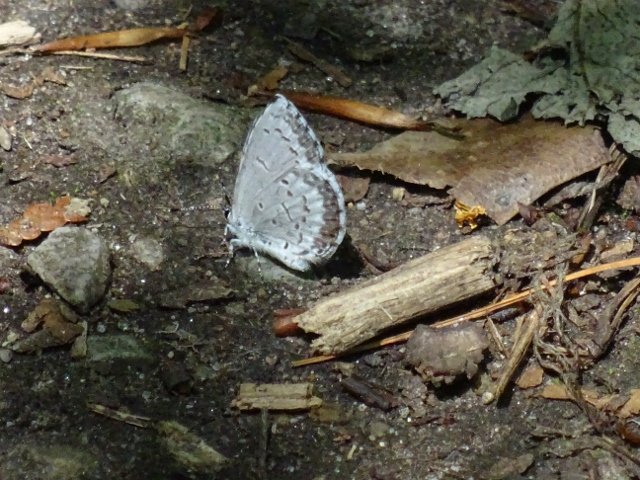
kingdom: Animalia
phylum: Arthropoda
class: Insecta
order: Lepidoptera
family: Lycaenidae
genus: Celastrina
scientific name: Celastrina lucia
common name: Northern Spring Azure
